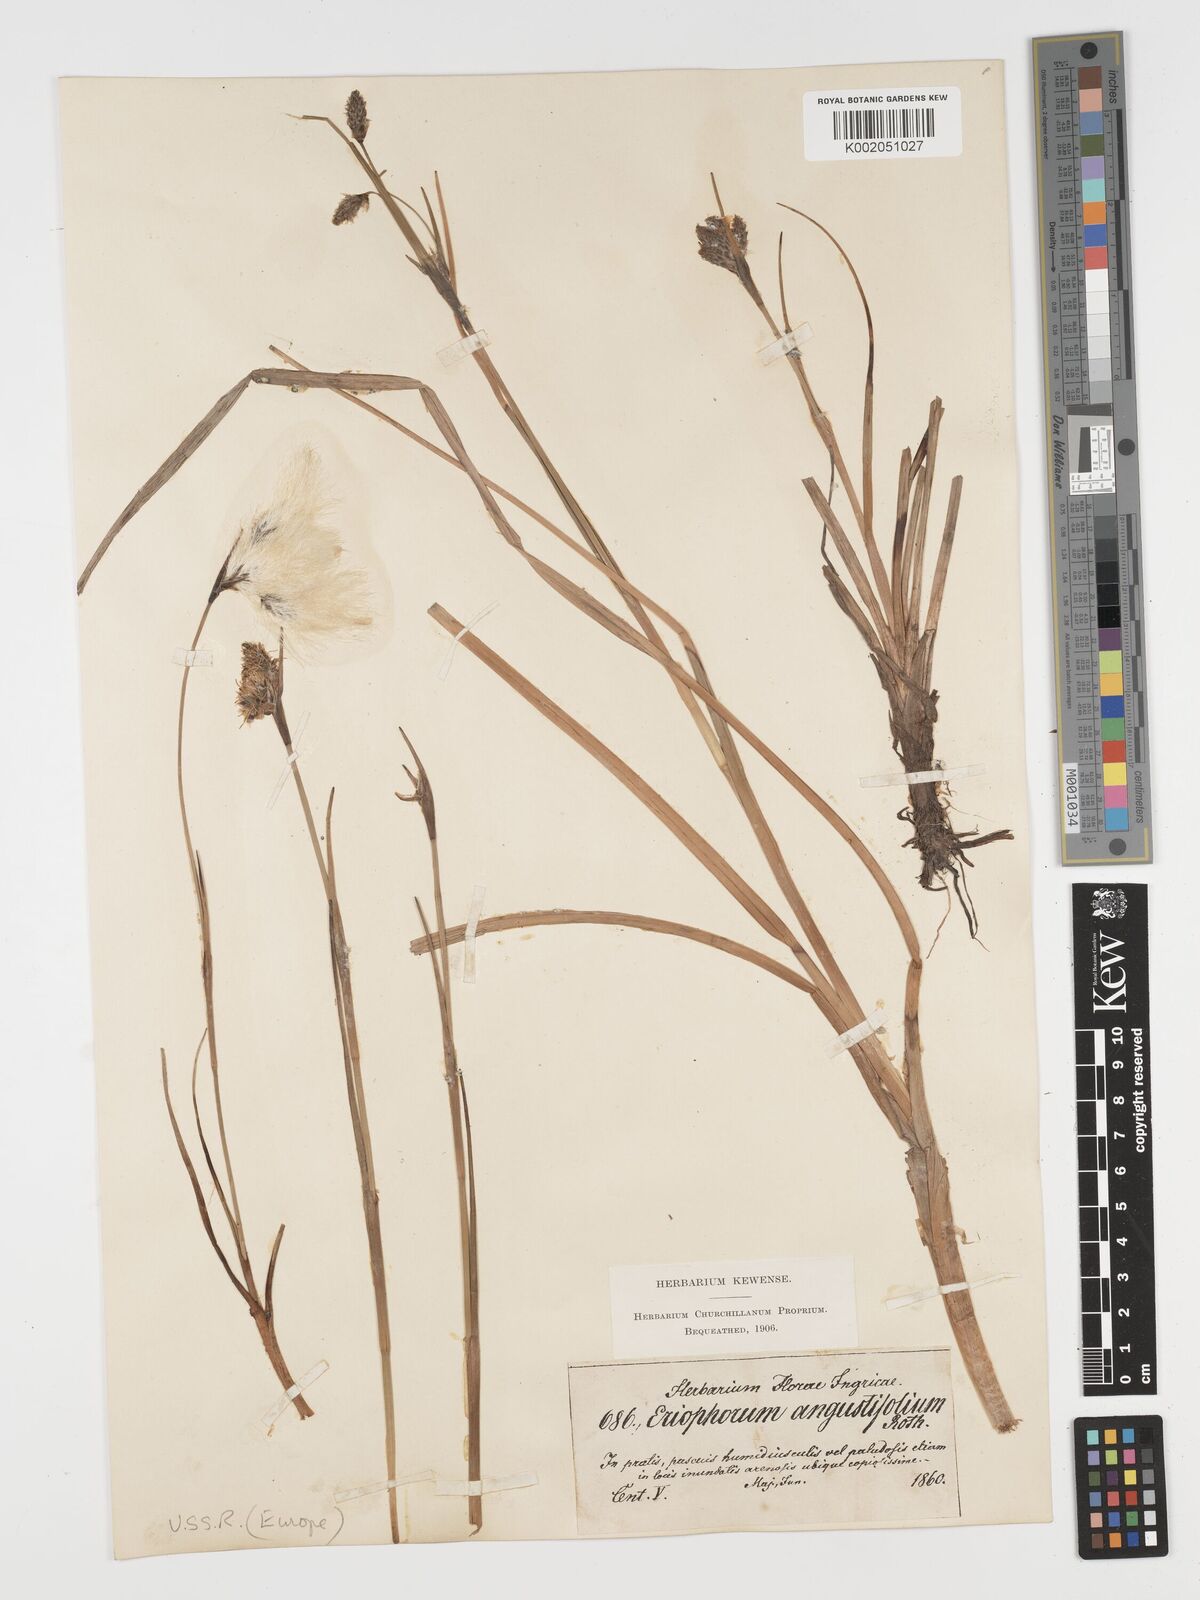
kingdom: Plantae
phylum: Tracheophyta
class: Liliopsida
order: Poales
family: Cyperaceae
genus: Eriophorum
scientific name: Eriophorum angustifolium
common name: Common cottongrass
